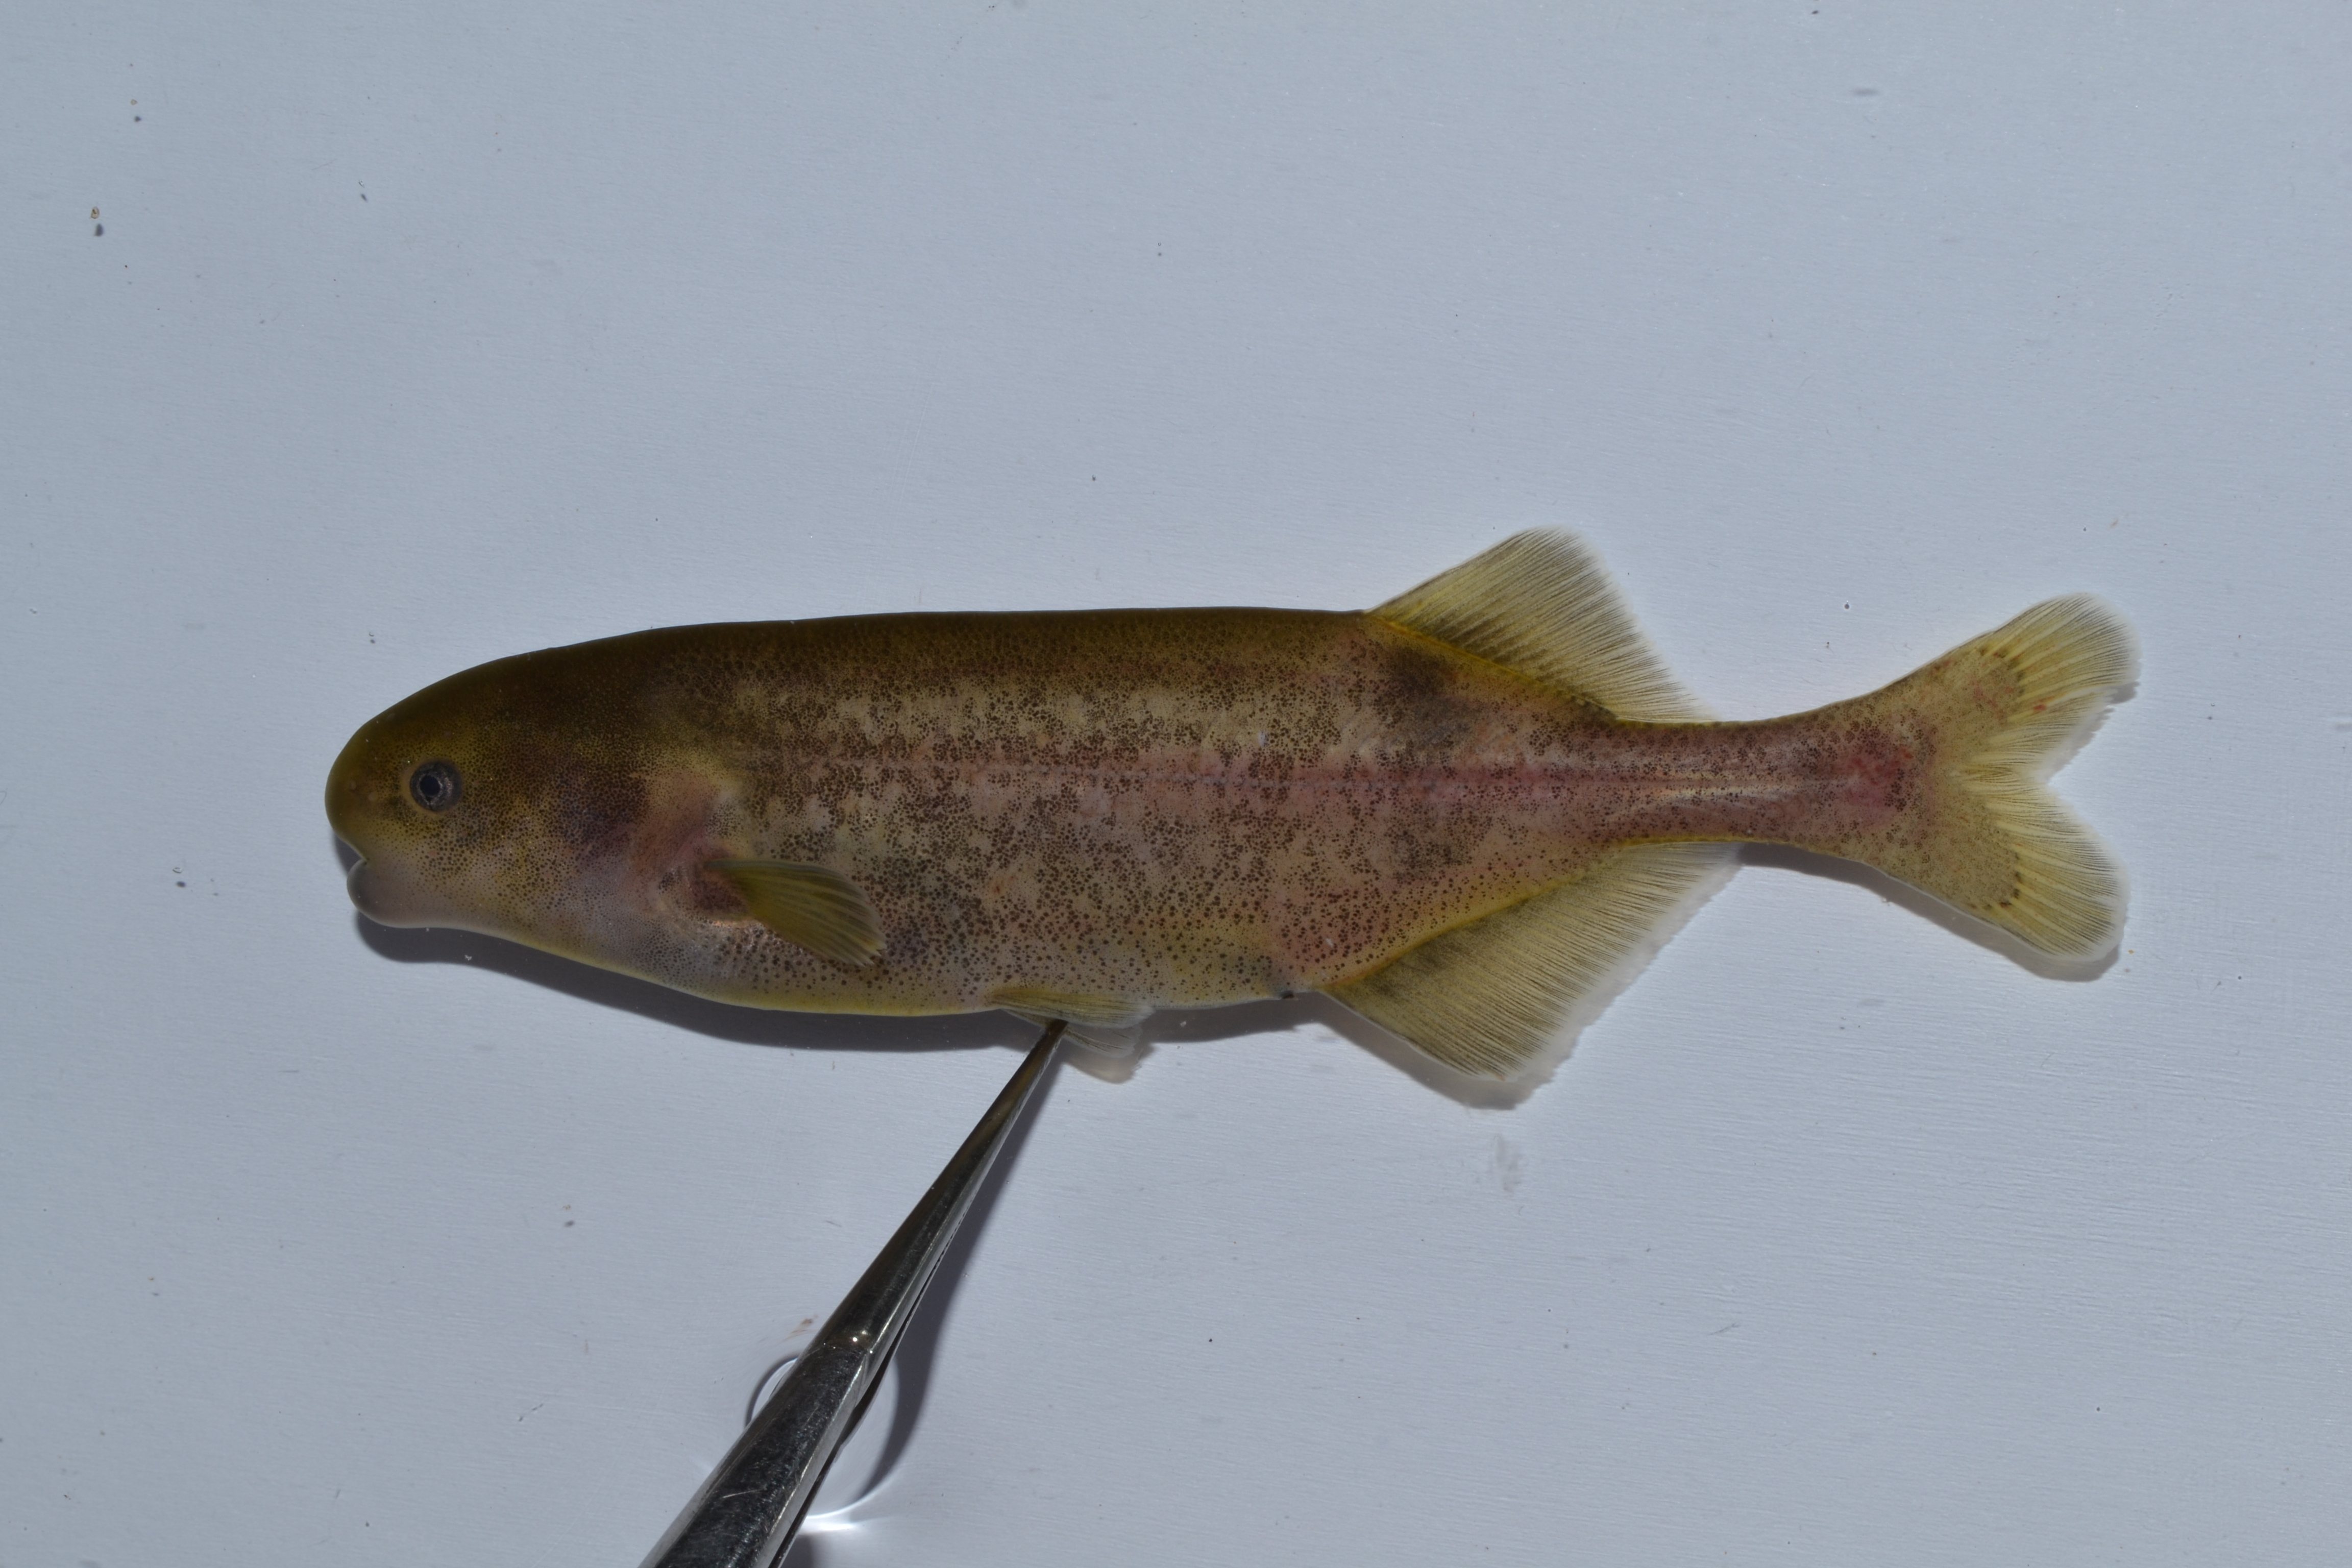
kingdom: Animalia
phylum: Chordata
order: Osteoglossiformes
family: Mormyridae
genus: Hippopotamyrus
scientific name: Hippopotamyrus
